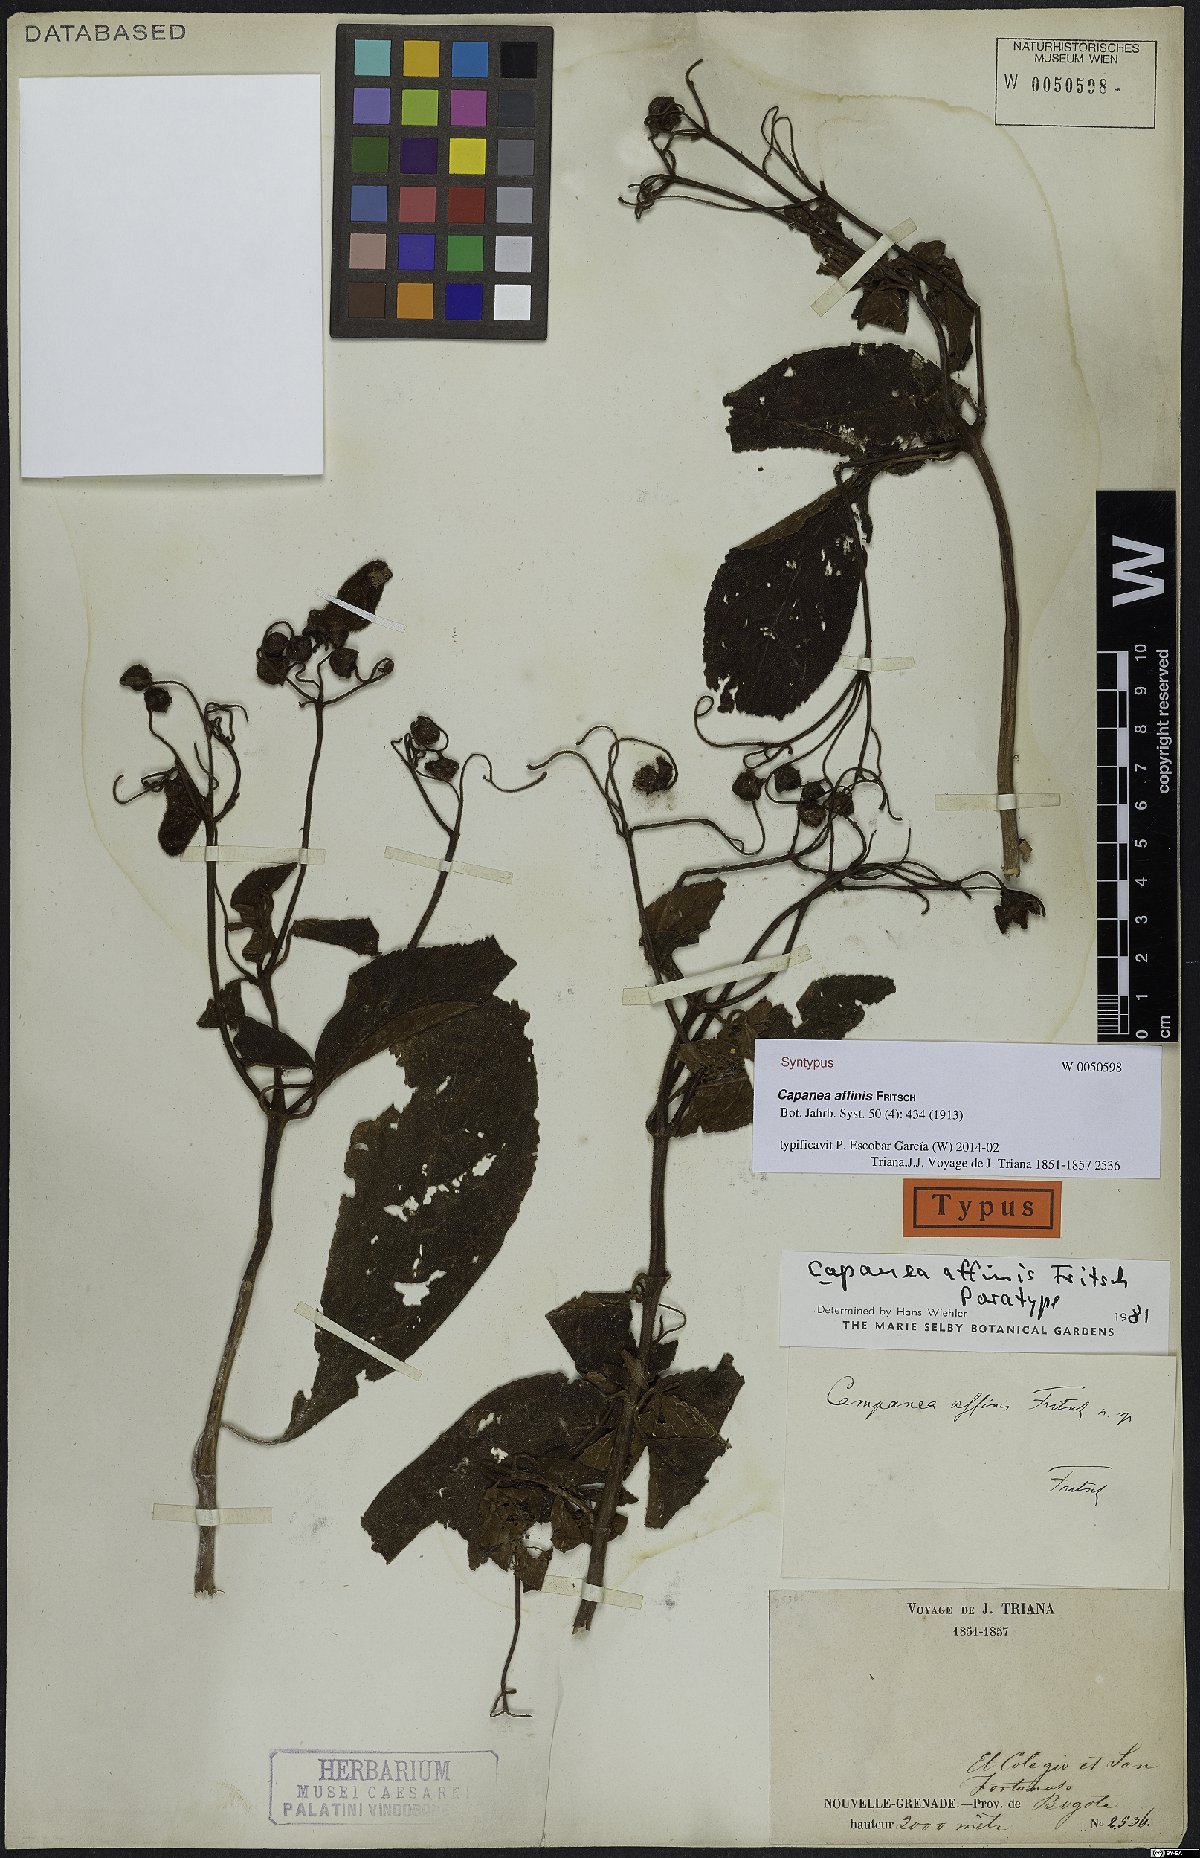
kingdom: Plantae
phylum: Tracheophyta
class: Magnoliopsida
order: Lamiales
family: Gesneriaceae
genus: Kohleria
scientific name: Kohleria affinis
